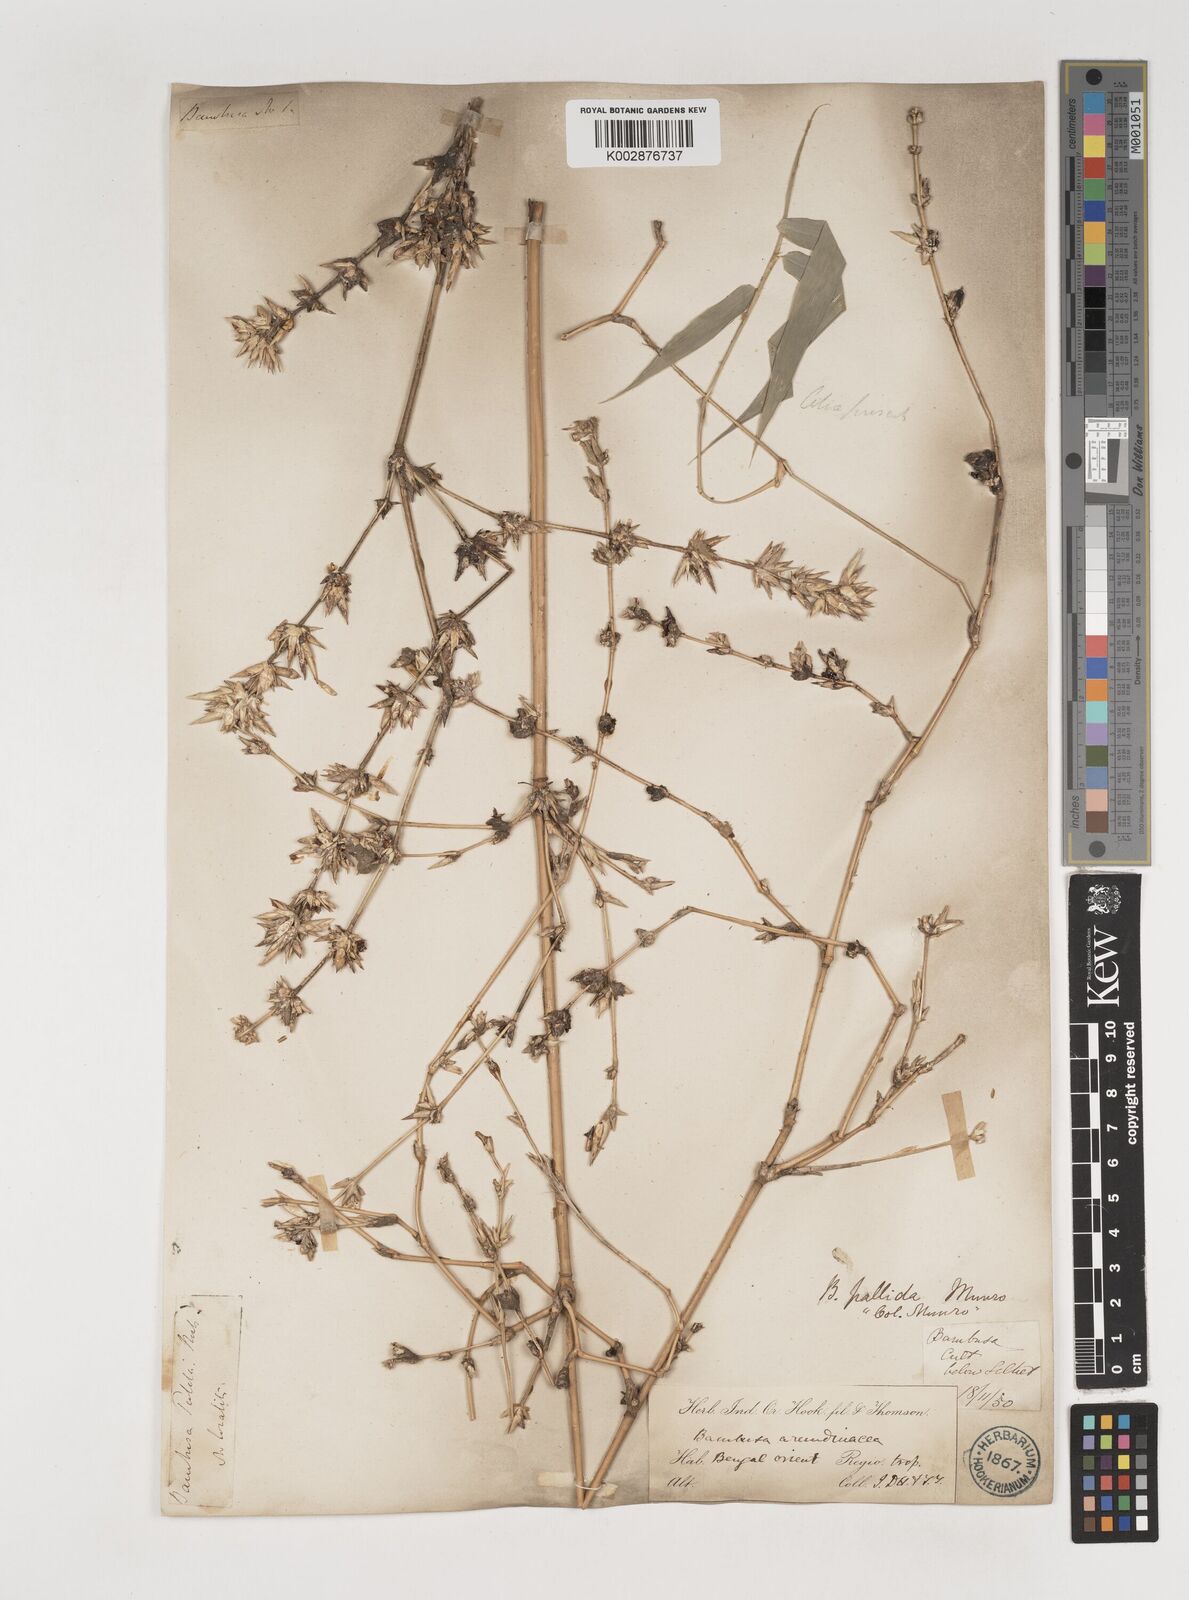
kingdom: Plantae
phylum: Tracheophyta
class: Liliopsida
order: Poales
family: Poaceae
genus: Bambusa
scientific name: Bambusa pallida
